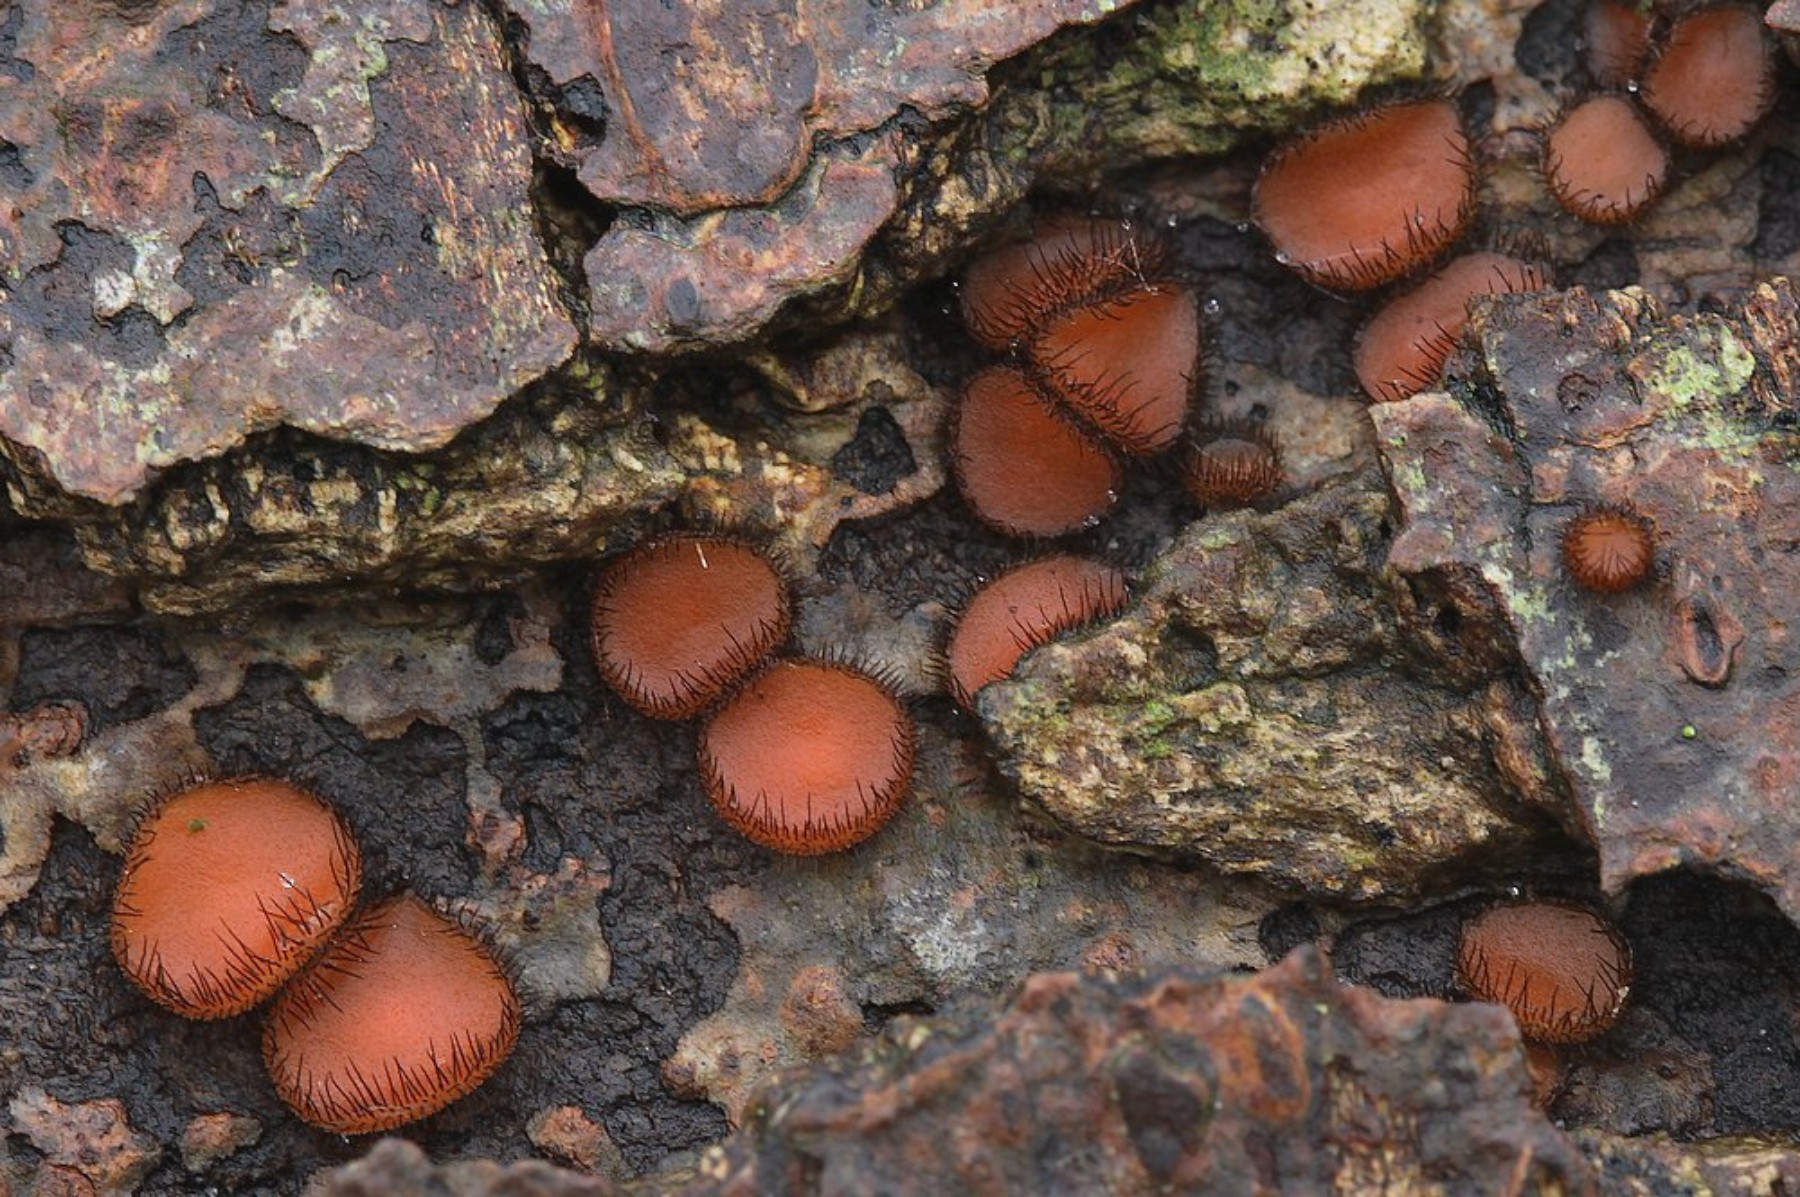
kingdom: Fungi
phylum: Ascomycota
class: Pezizomycetes
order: Pezizales
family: Pyronemataceae
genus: Scutellinia
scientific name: Scutellinia scutellata
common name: frynset skjoldbæger
